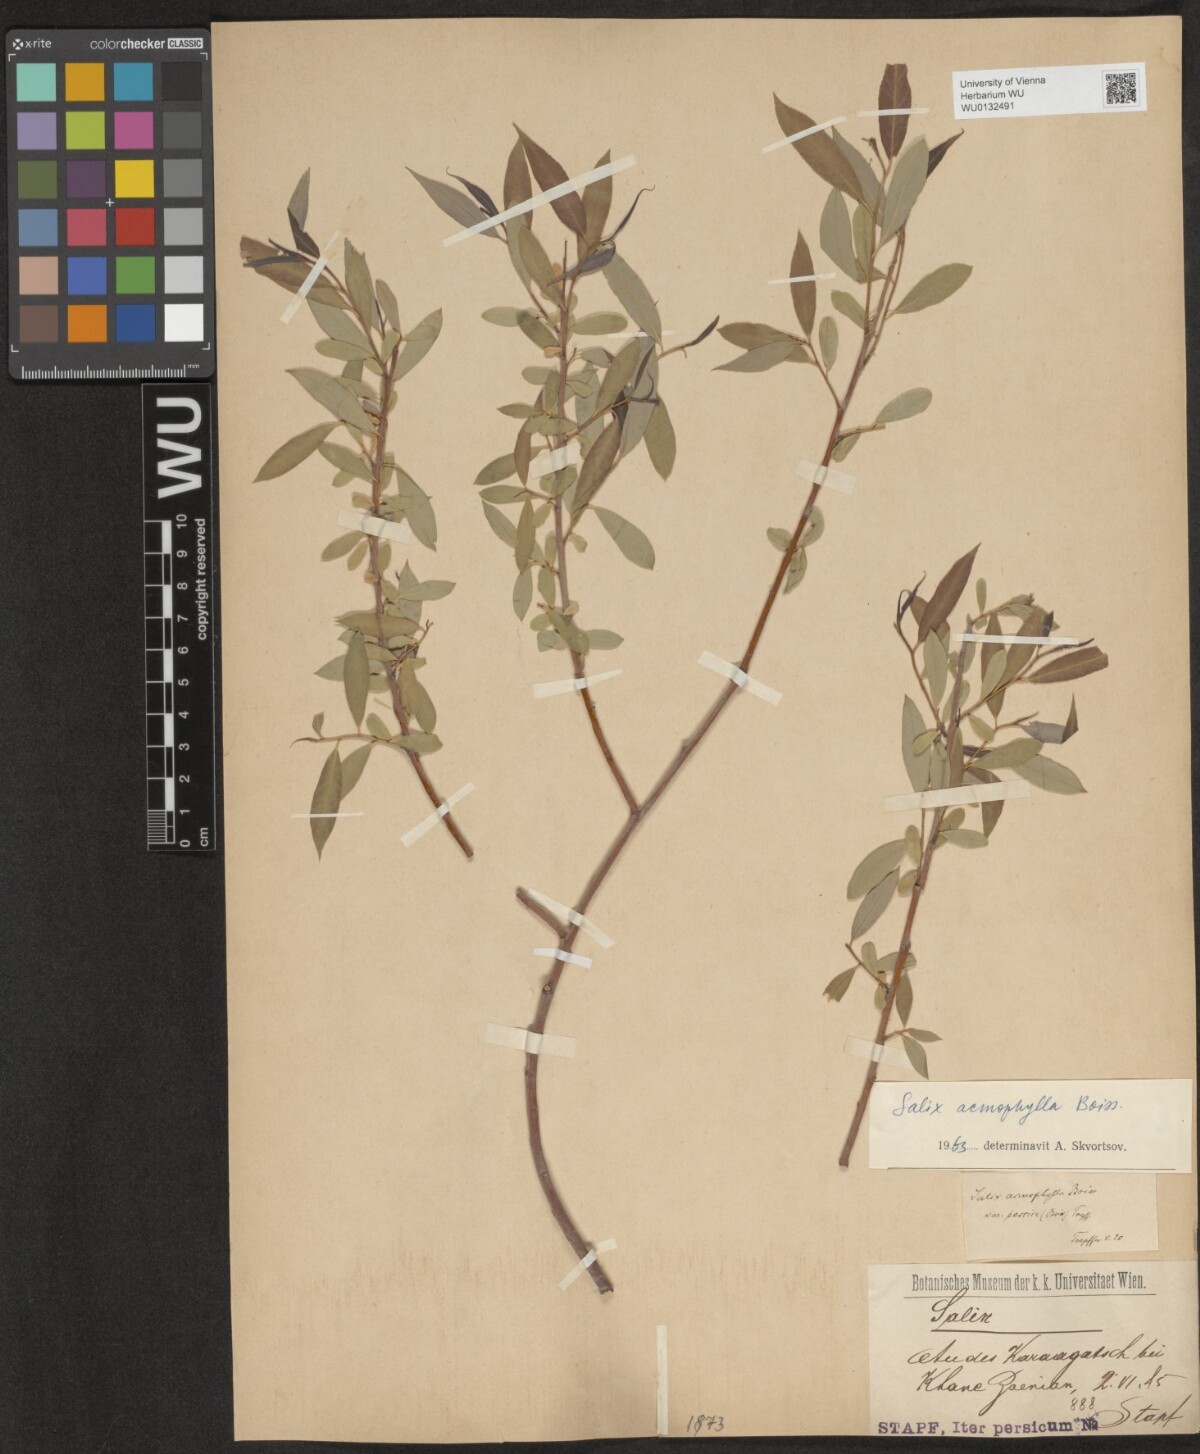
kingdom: Plantae
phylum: Tracheophyta
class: Magnoliopsida
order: Malpighiales
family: Salicaceae
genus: Salix
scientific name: Salix acmophylla
